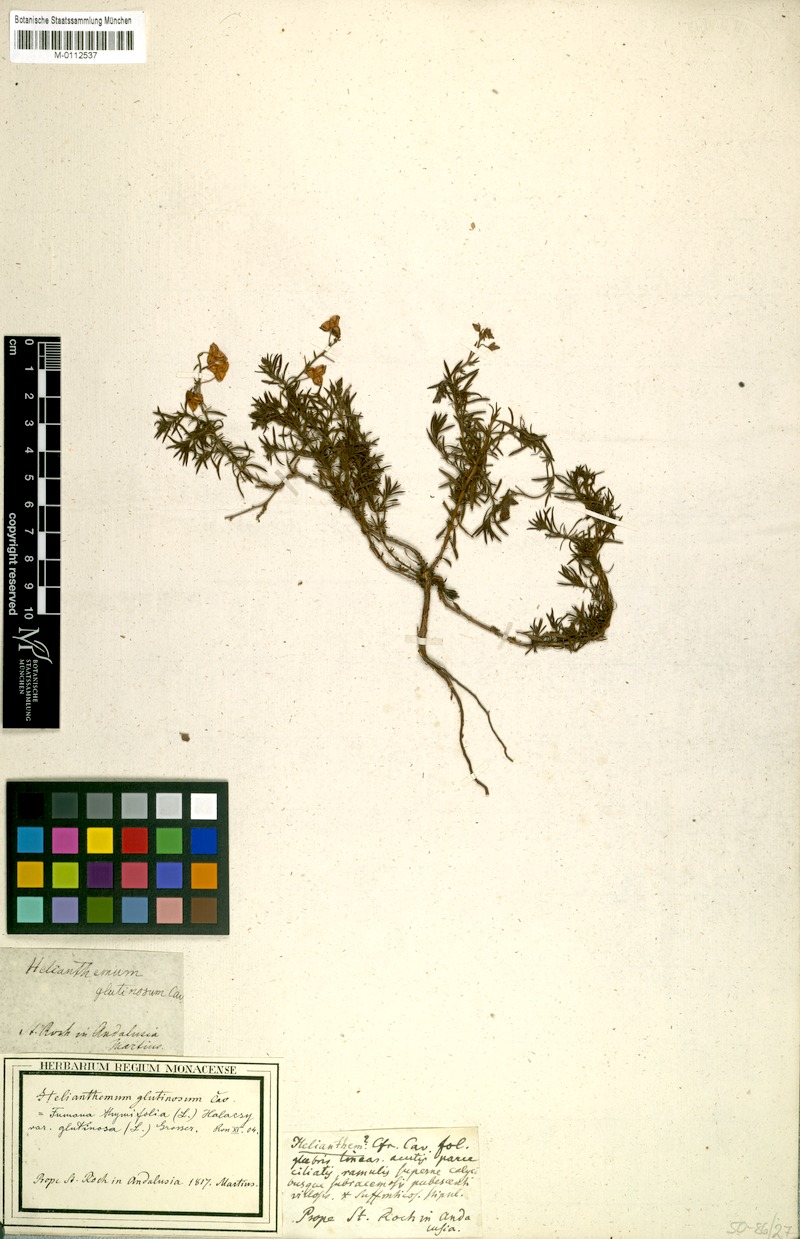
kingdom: Plantae
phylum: Tracheophyta
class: Magnoliopsida
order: Malvales
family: Cistaceae
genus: Fumana
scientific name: Fumana thymifolia
